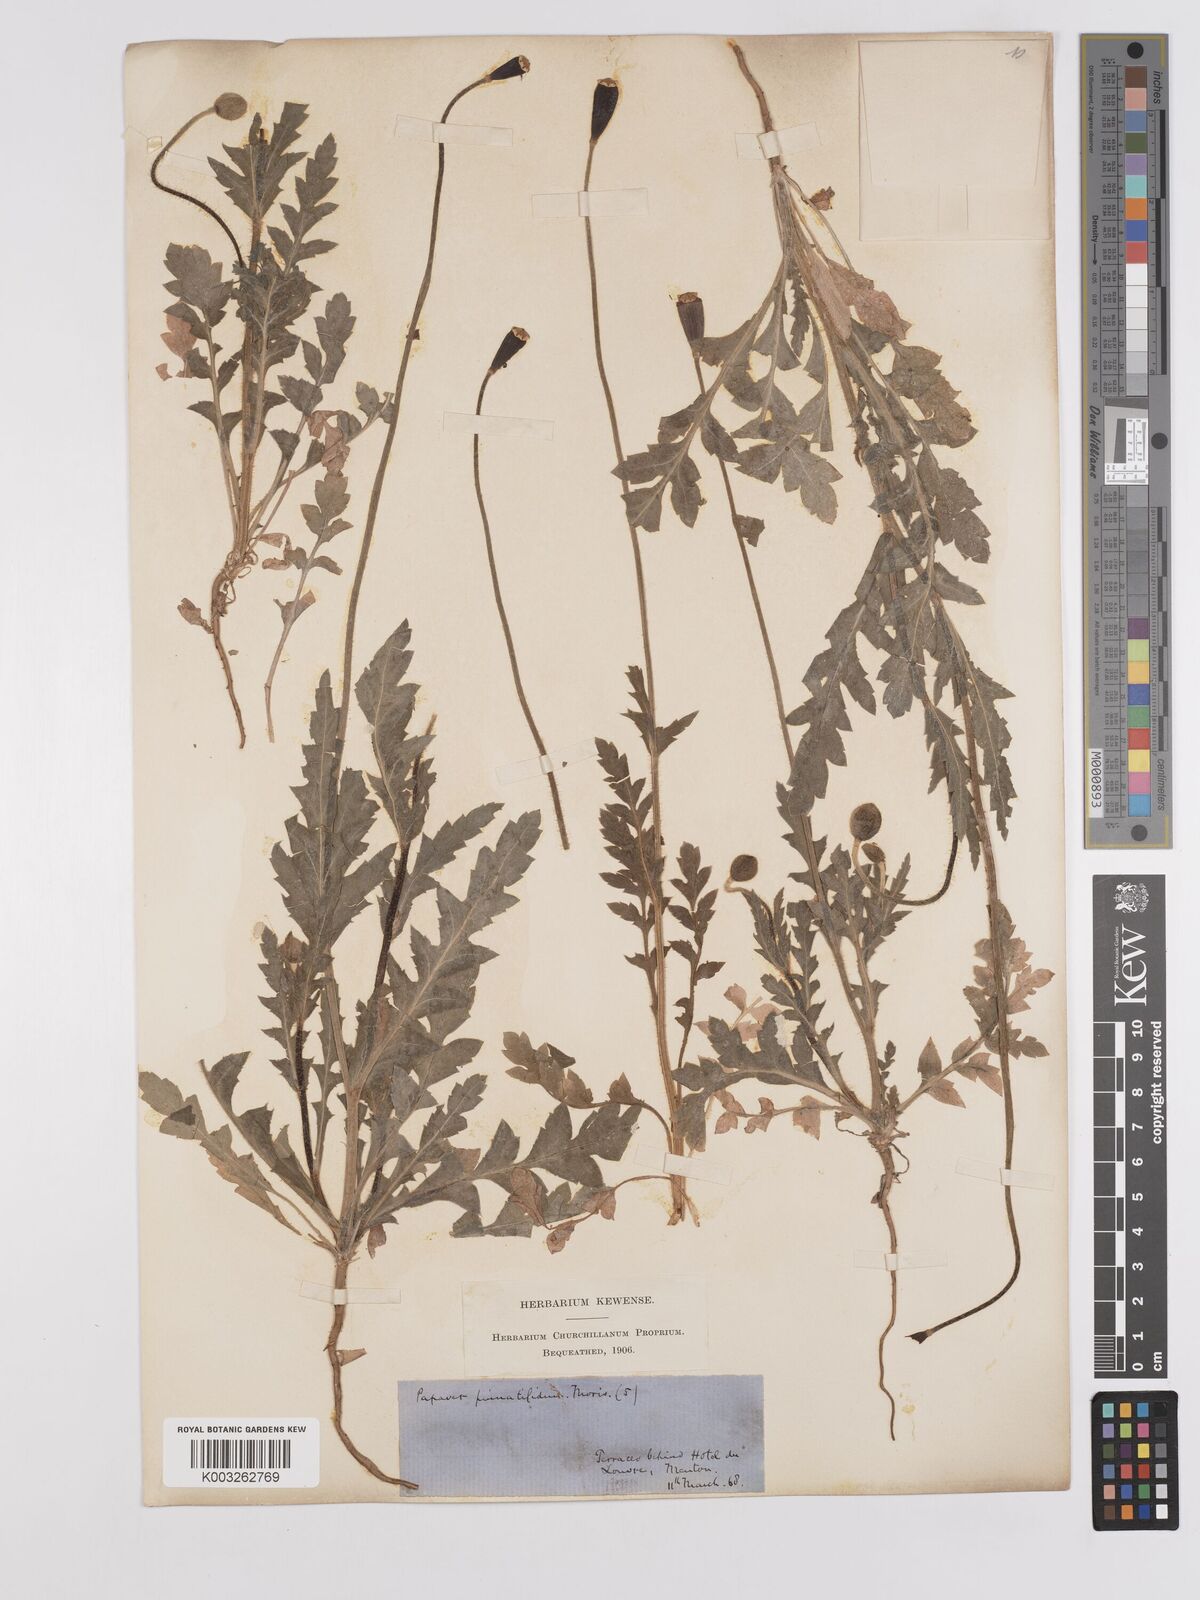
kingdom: Plantae
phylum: Tracheophyta
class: Magnoliopsida
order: Ranunculales
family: Papaveraceae
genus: Papaver
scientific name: Papaver pinnatifidum
